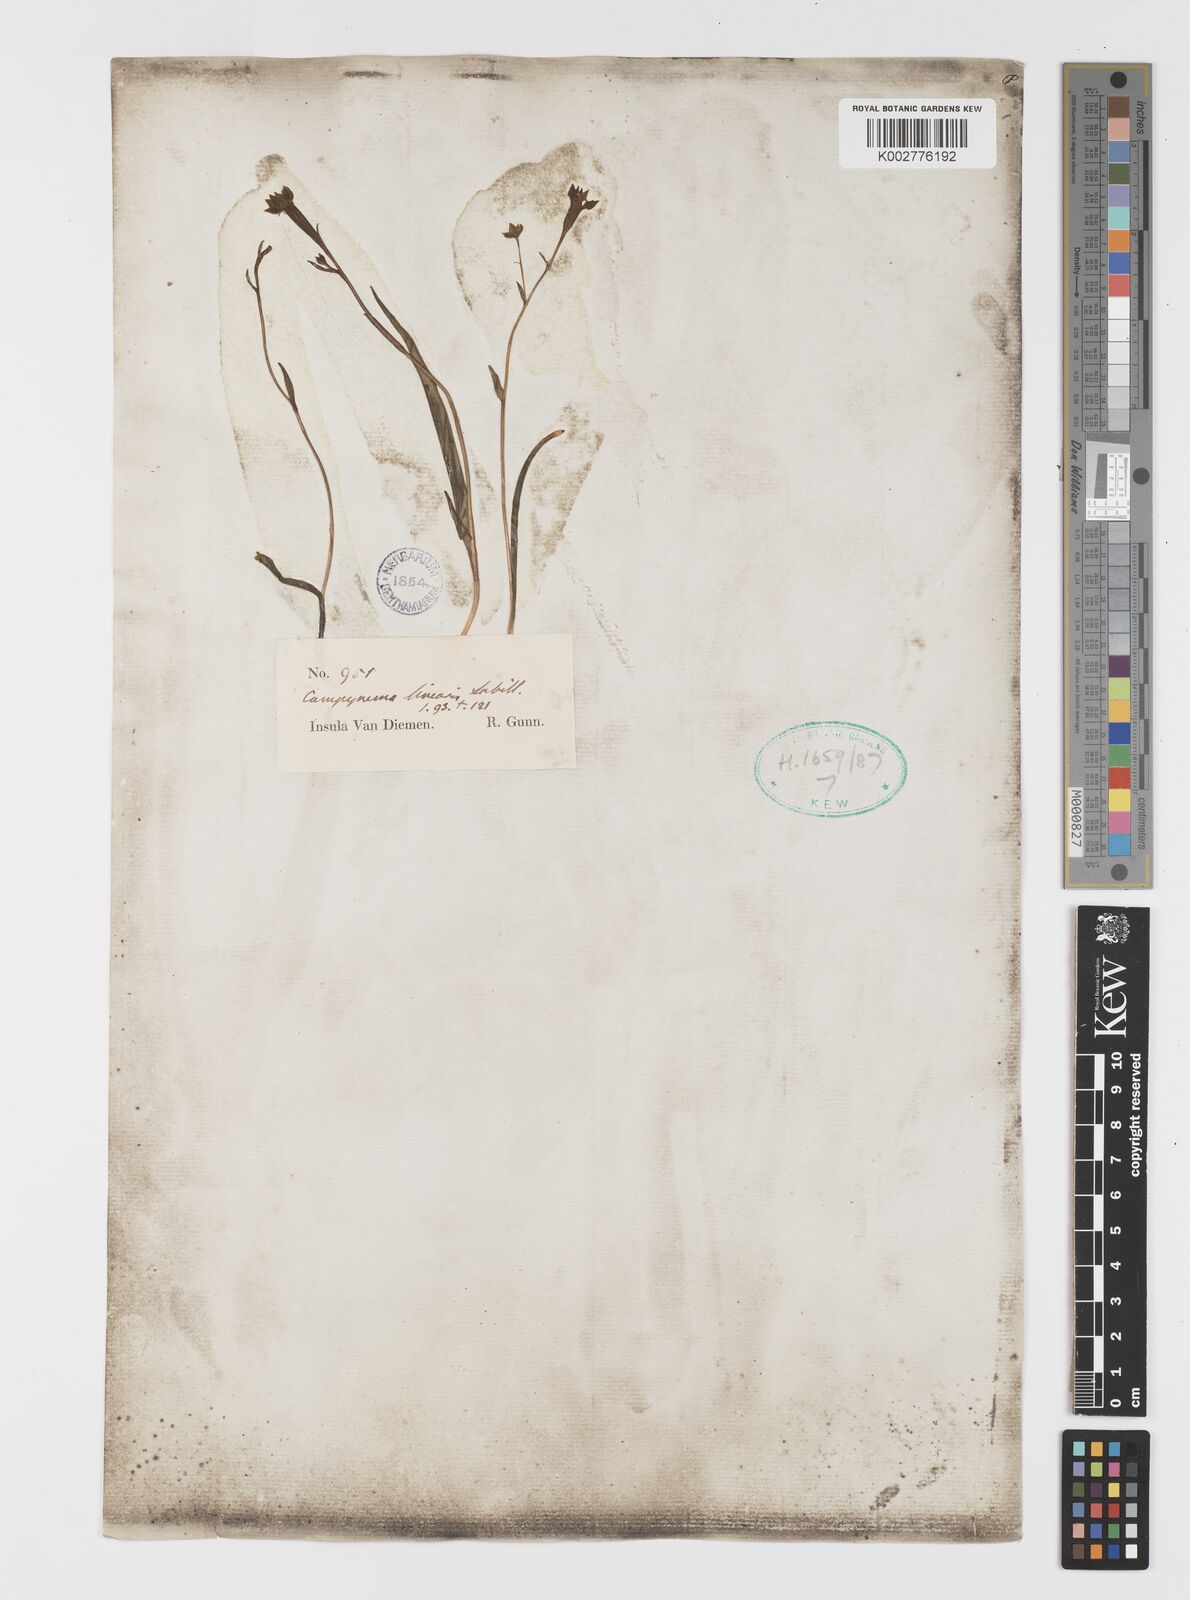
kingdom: Plantae
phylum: Tracheophyta
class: Liliopsida
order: Liliales
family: Campynemataceae
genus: Campynema
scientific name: Campynema lineare
